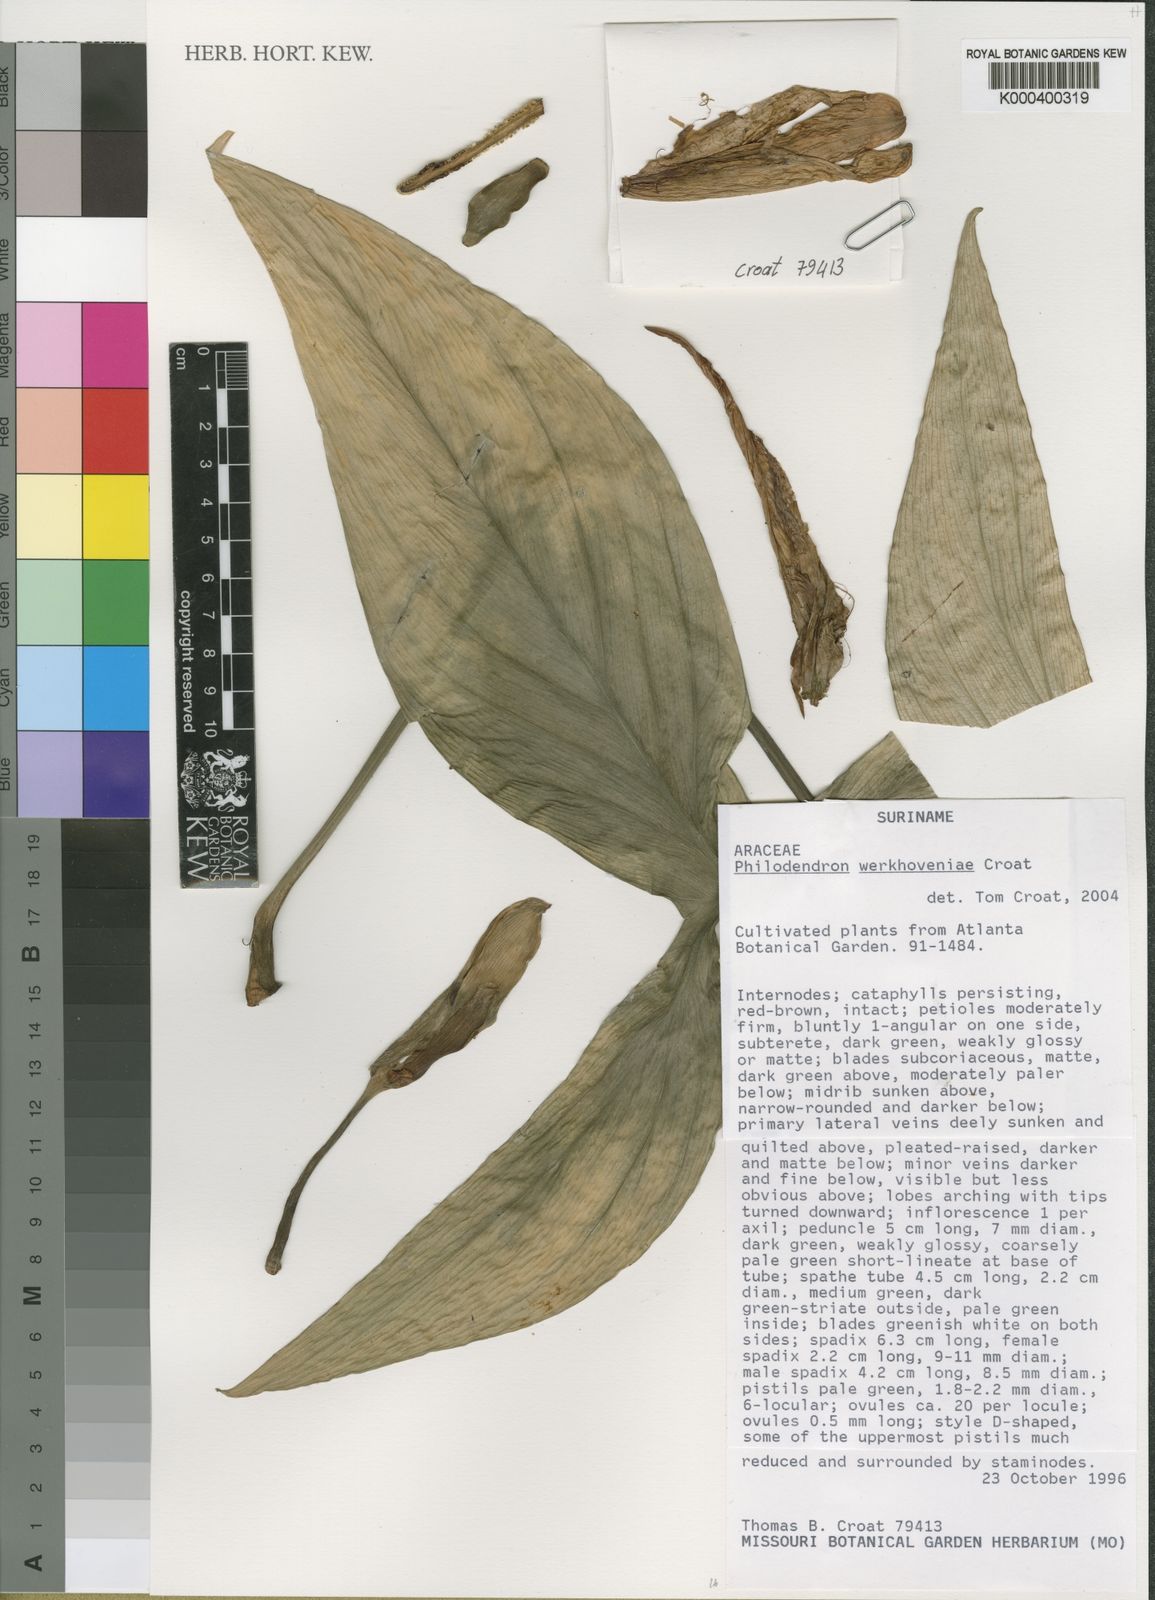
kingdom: Plantae
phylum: Tracheophyta
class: Liliopsida
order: Alismatales
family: Araceae
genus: Philodendron
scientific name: Philodendron werkhoveniae
